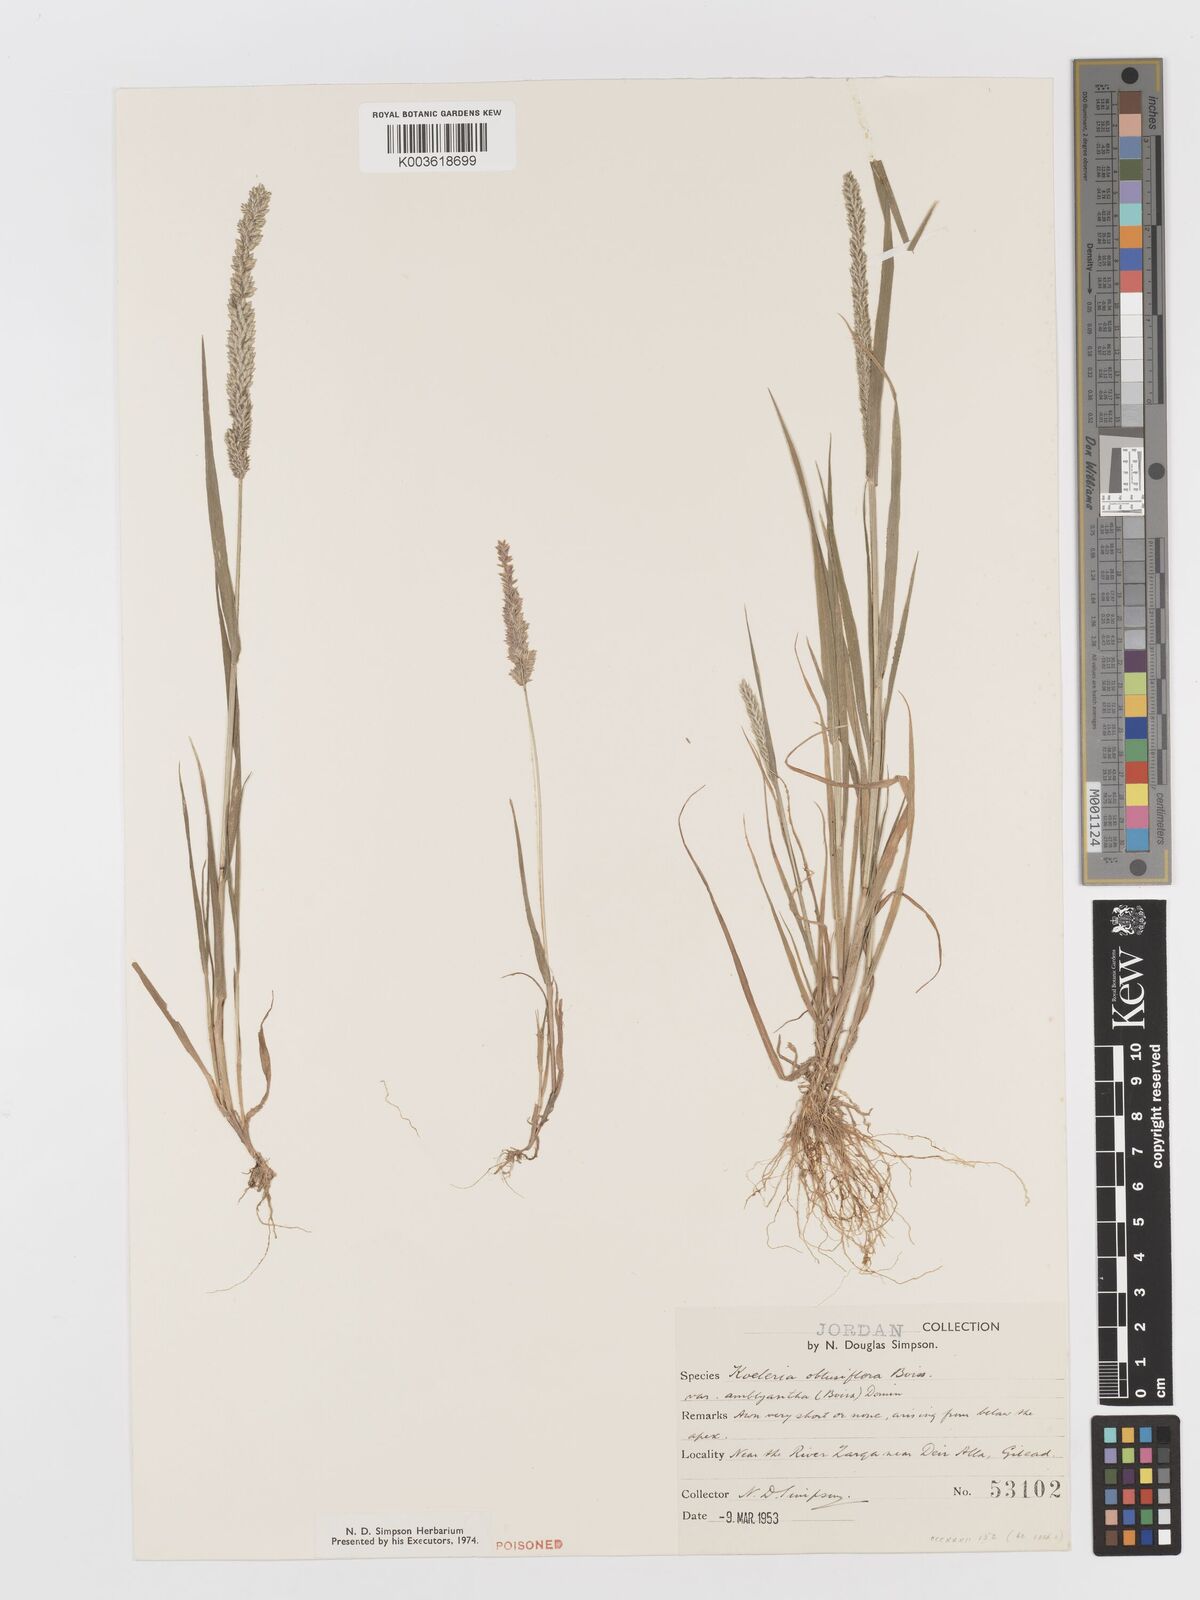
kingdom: Plantae
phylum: Tracheophyta
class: Liliopsida
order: Poales
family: Poaceae
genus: Rostraria
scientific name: Rostraria obtusiflora
